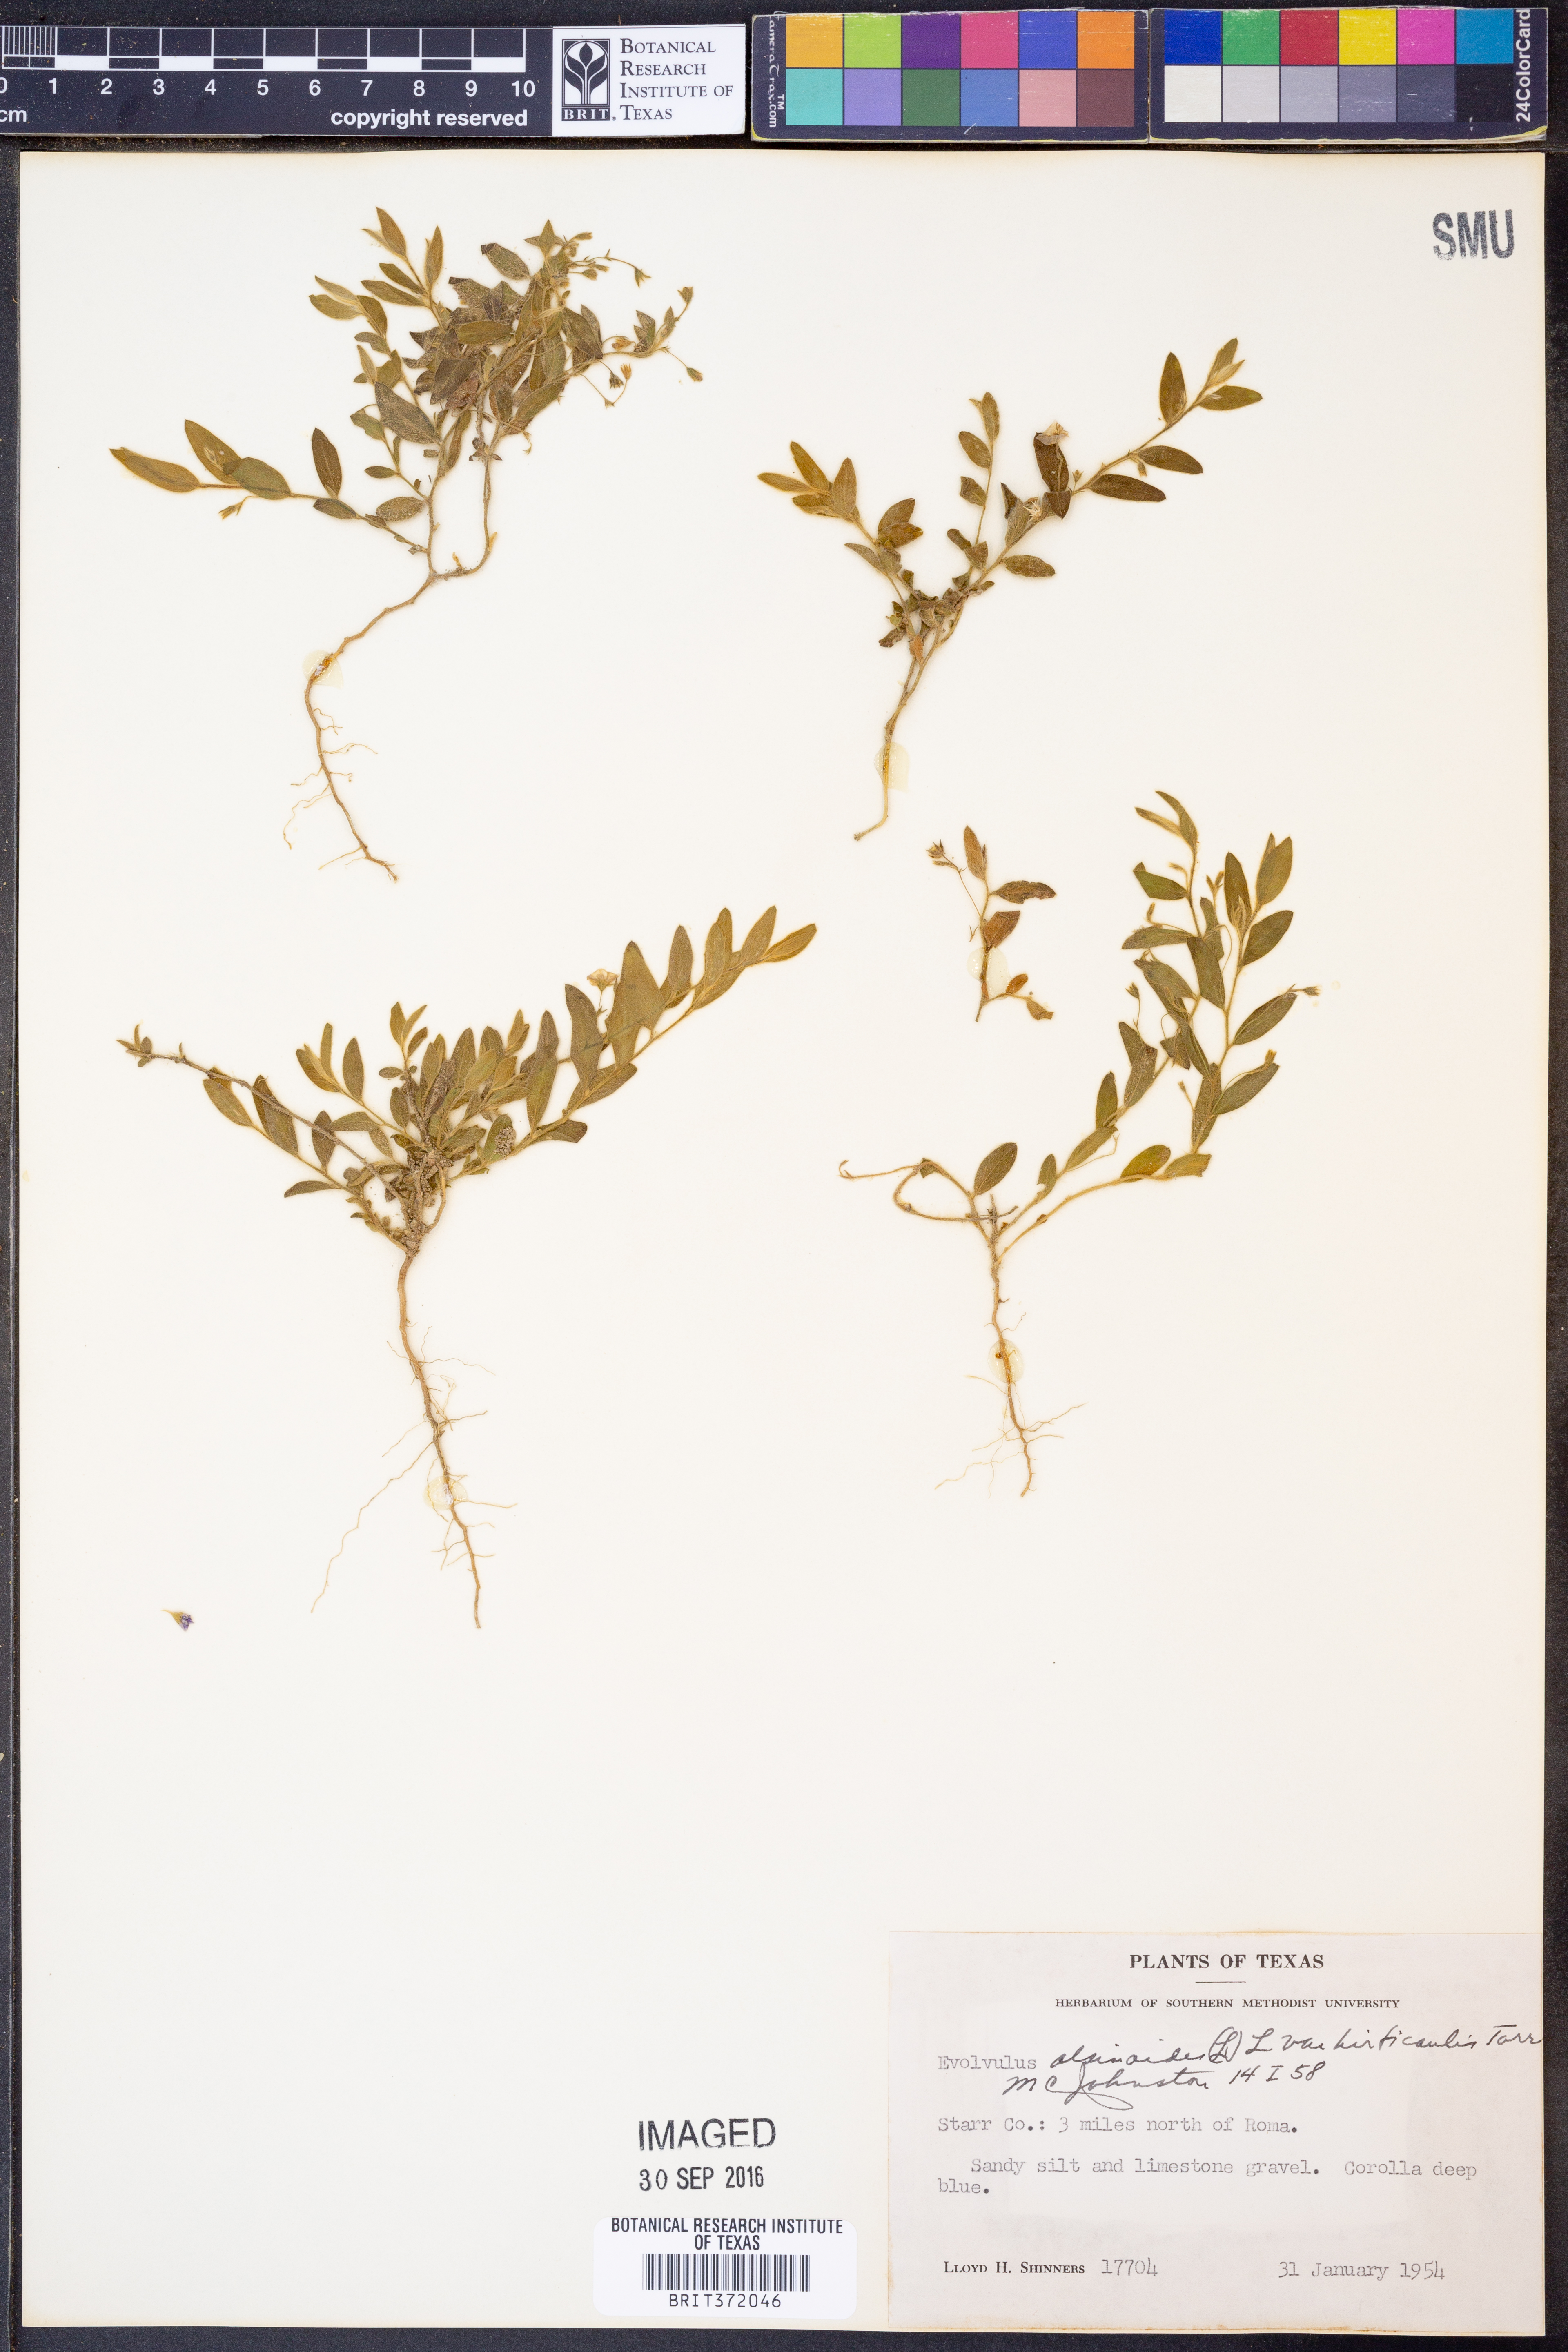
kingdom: Plantae
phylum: Tracheophyta
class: Magnoliopsida
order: Solanales
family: Convolvulaceae
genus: Evolvulus
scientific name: Evolvulus alsinoides
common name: Slender dwarf morning-glory
